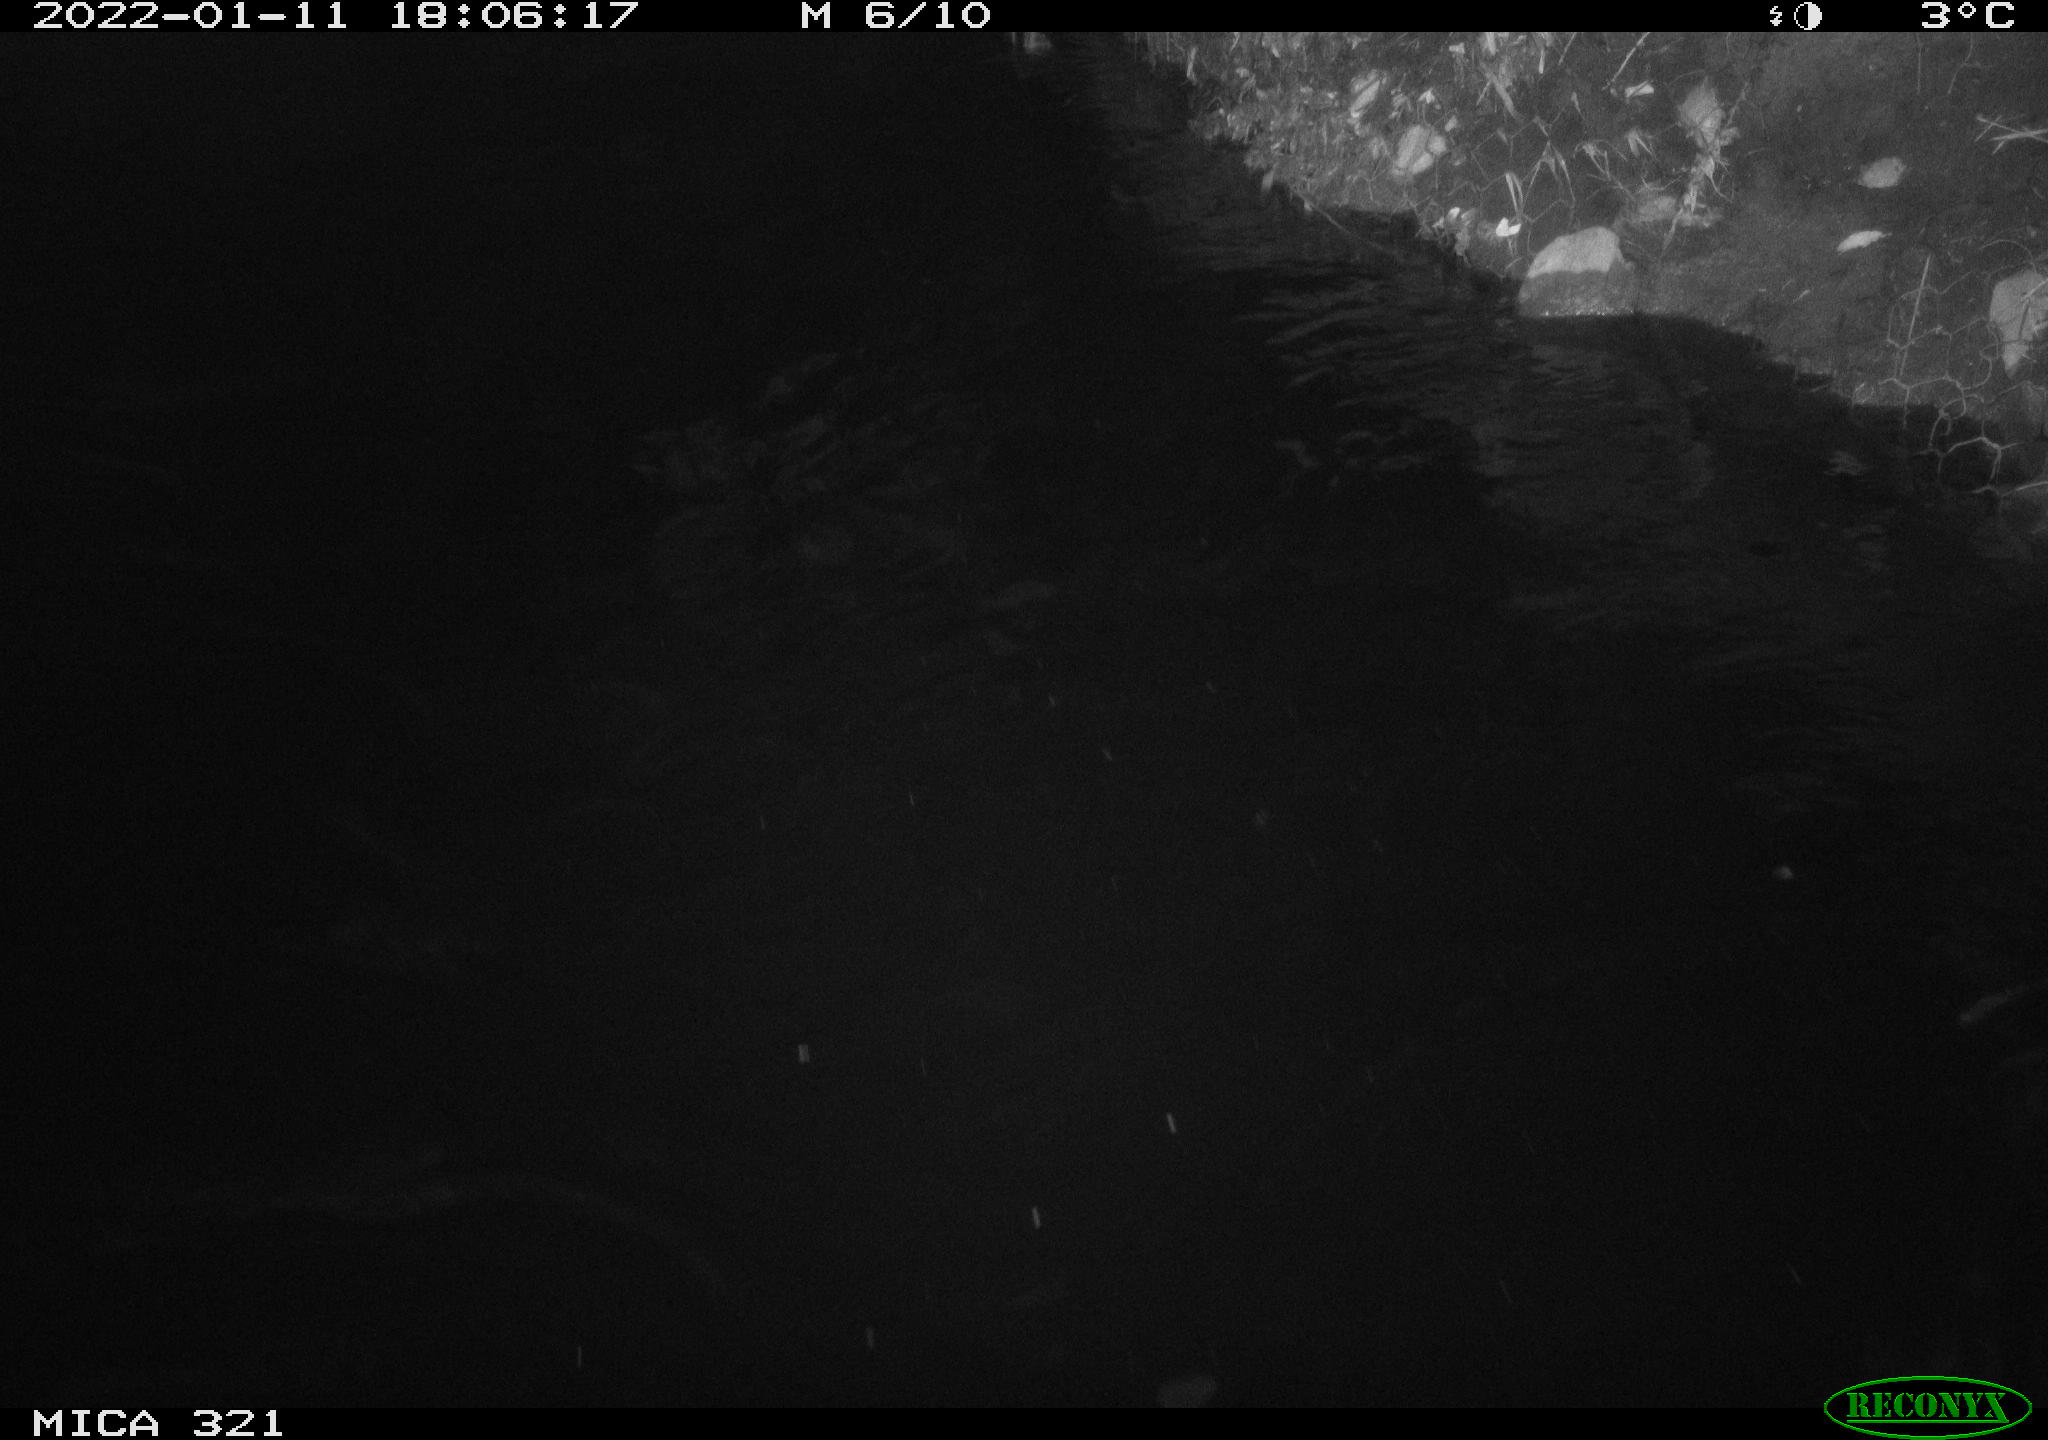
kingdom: Animalia
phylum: Chordata
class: Aves
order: Anseriformes
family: Anatidae
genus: Anas
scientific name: Anas
